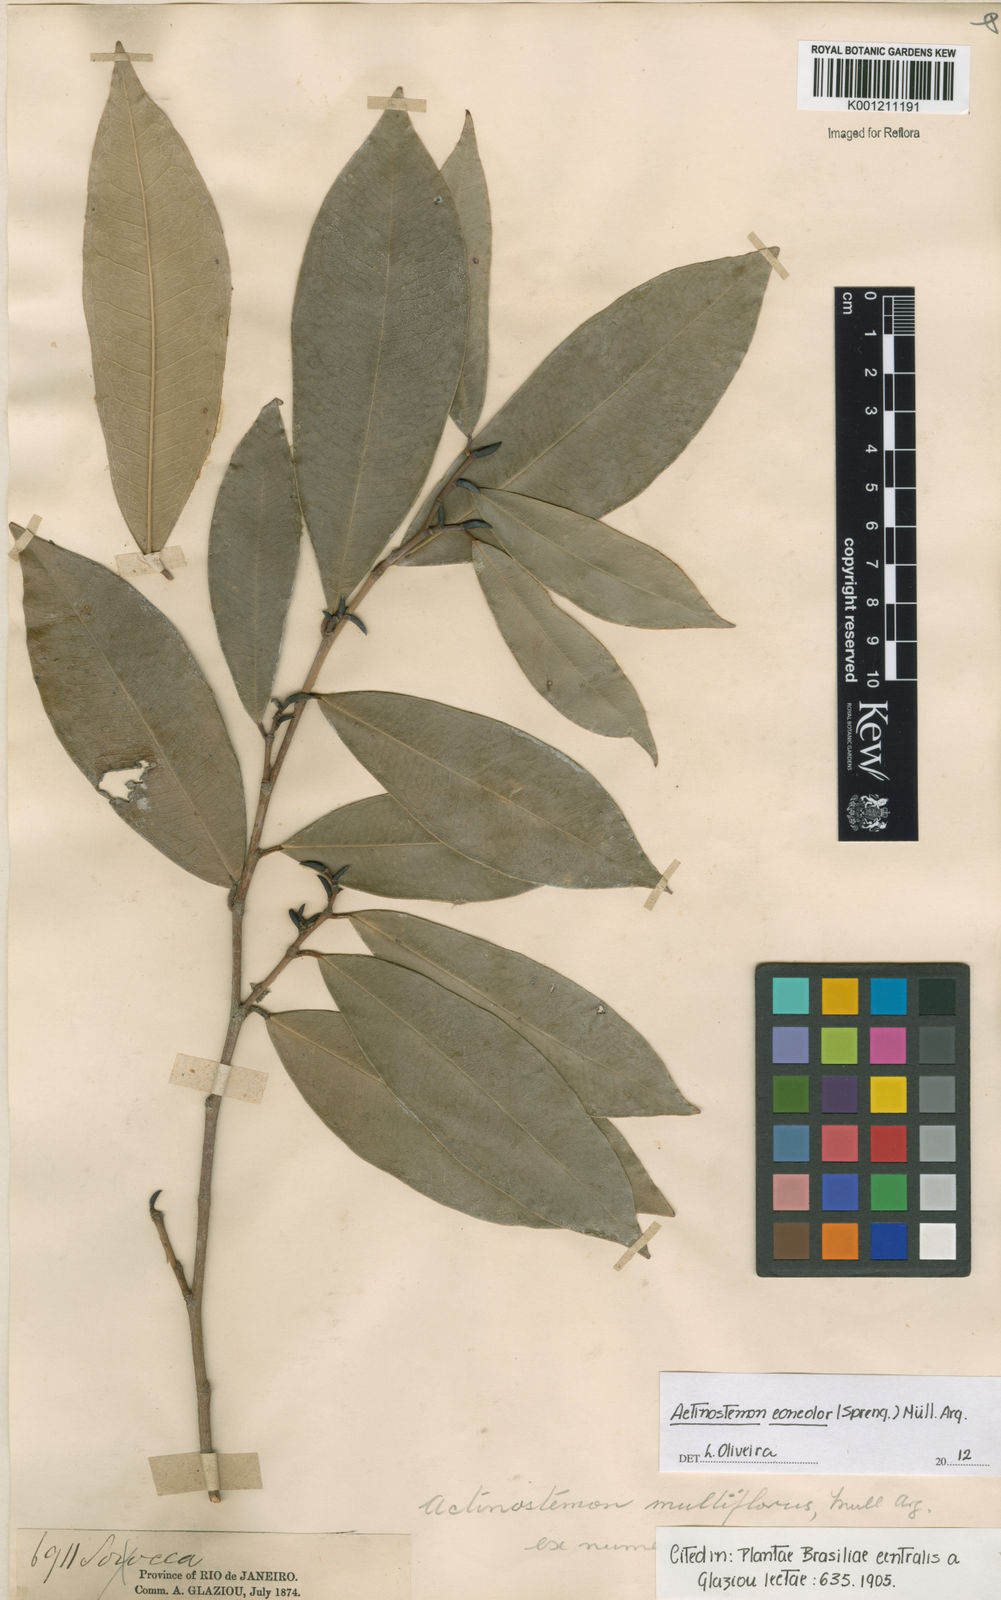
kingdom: Plantae
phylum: Tracheophyta
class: Magnoliopsida
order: Malpighiales
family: Euphorbiaceae
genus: Actinostemon
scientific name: Actinostemon
